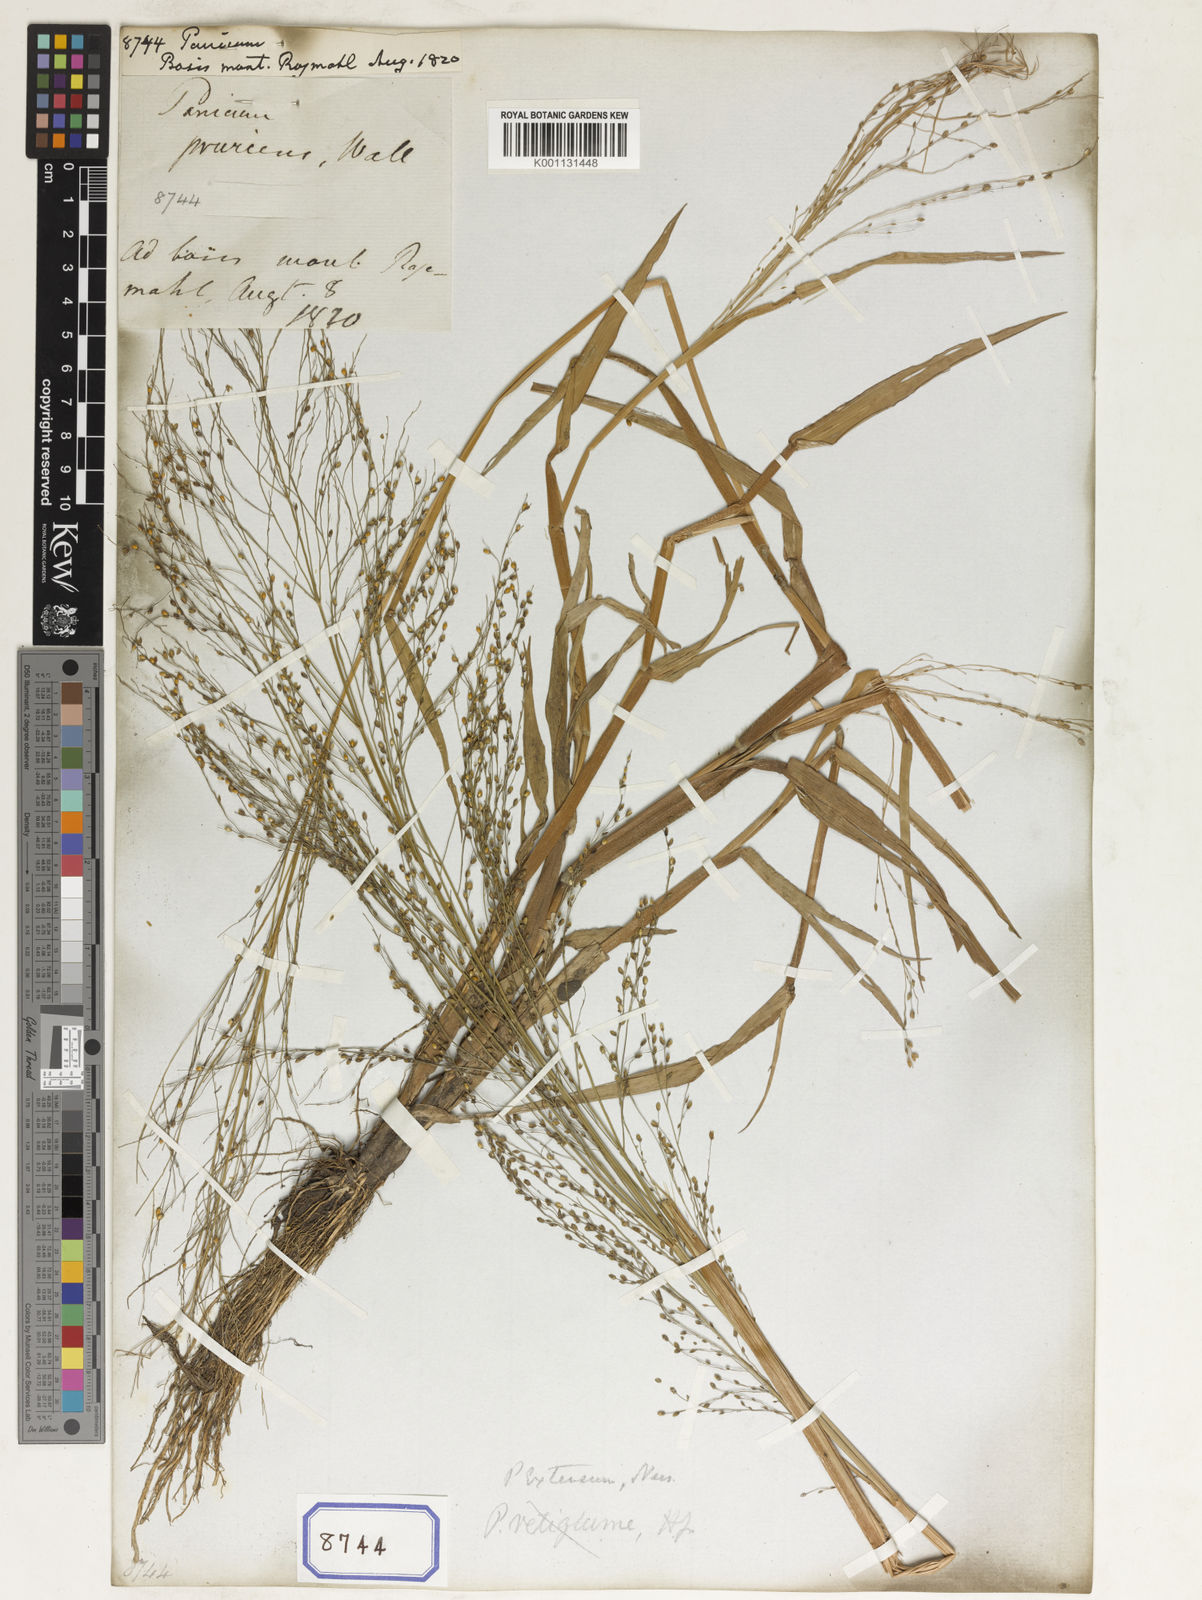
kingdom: Plantae
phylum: Tracheophyta
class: Liliopsida
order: Poales
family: Poaceae
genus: Panicum
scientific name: Panicum
